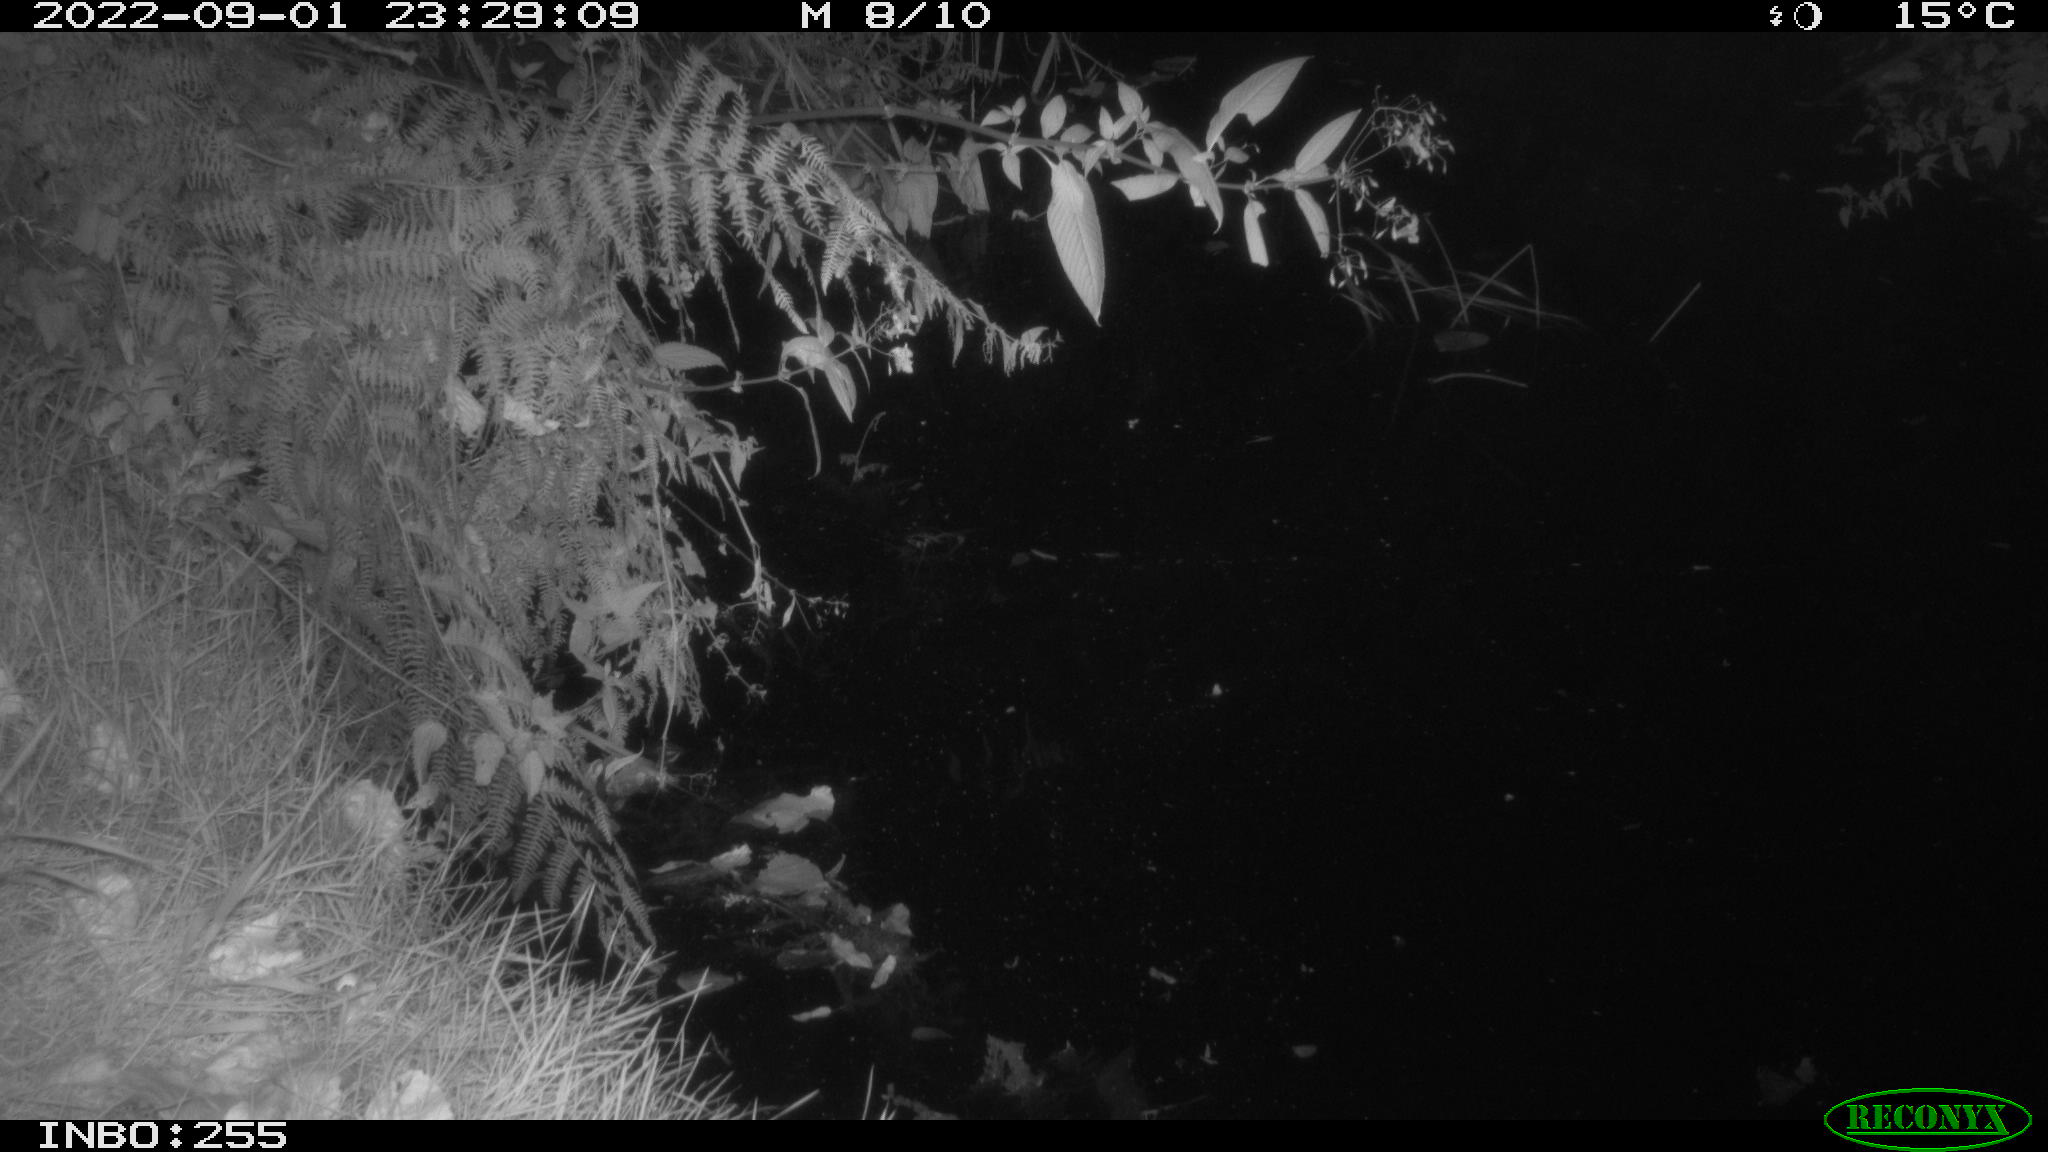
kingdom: Animalia
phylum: Chordata
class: Mammalia
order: Rodentia
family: Muridae
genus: Rattus
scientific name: Rattus norvegicus
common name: Brown rat
